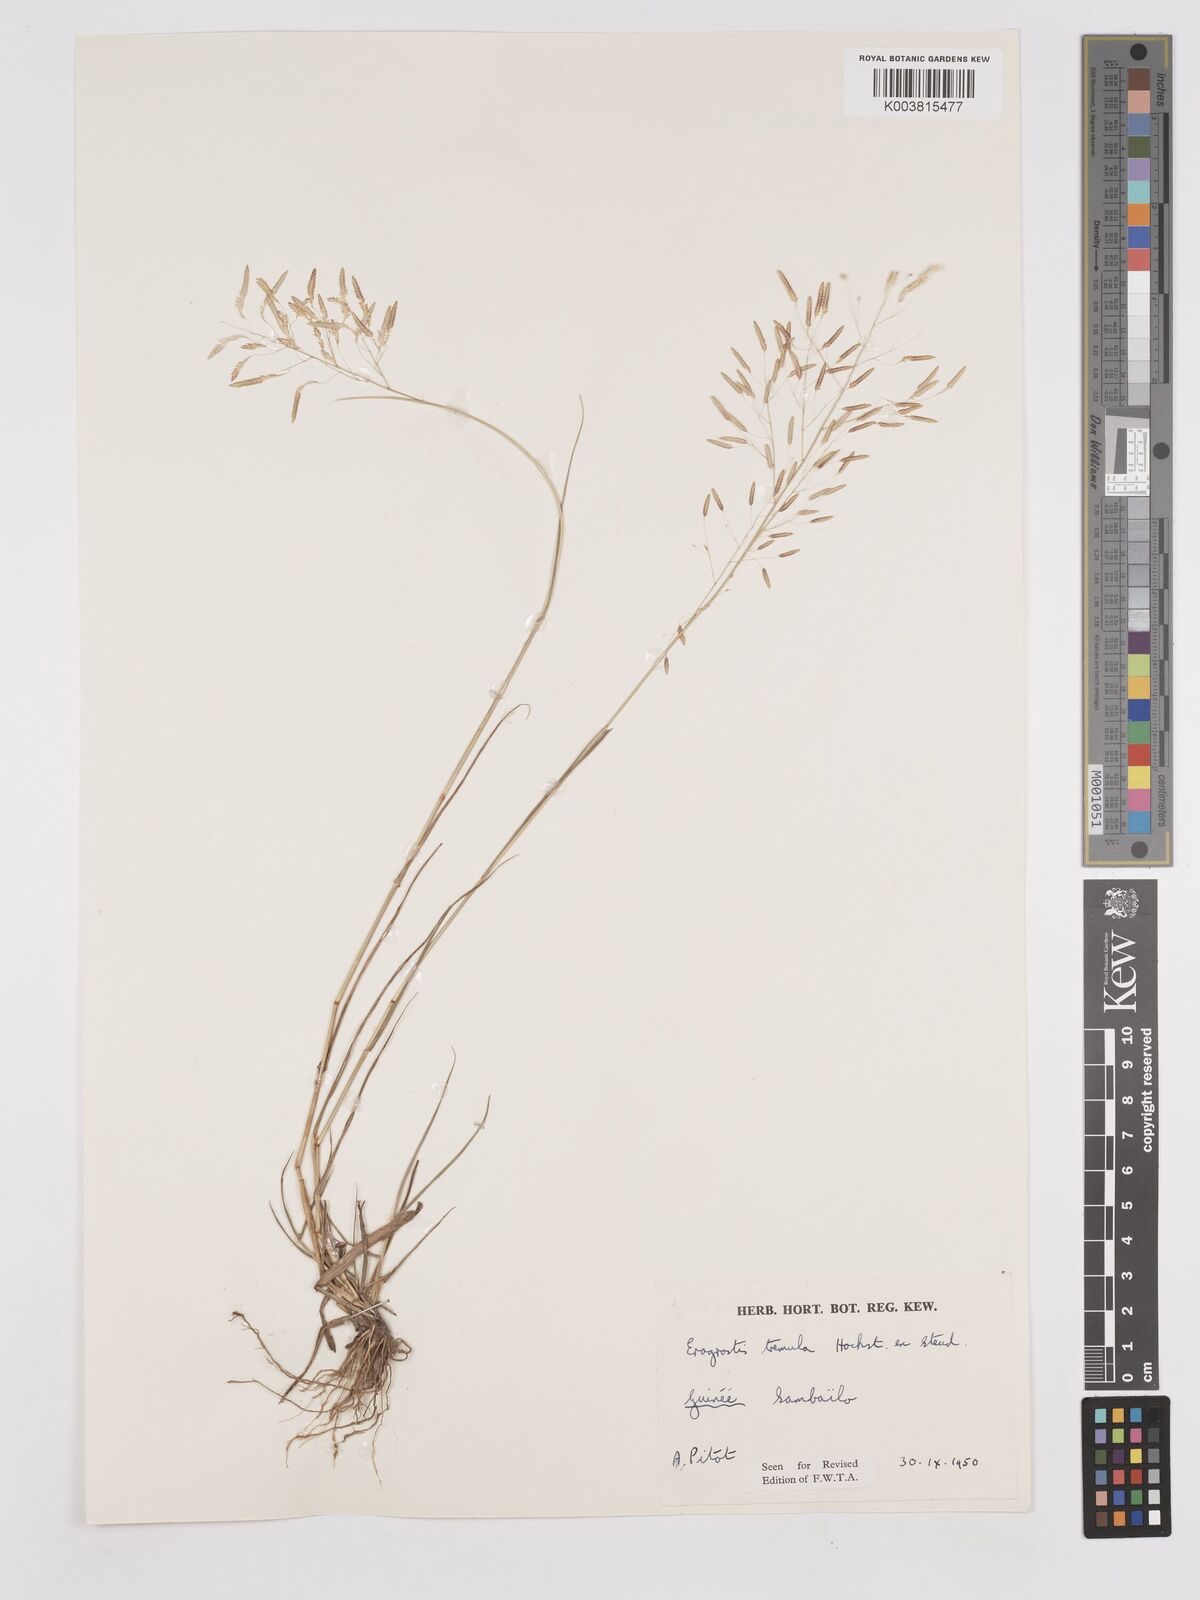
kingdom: Plantae
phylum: Tracheophyta
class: Liliopsida
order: Poales
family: Poaceae
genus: Eragrostis
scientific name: Eragrostis tremula
